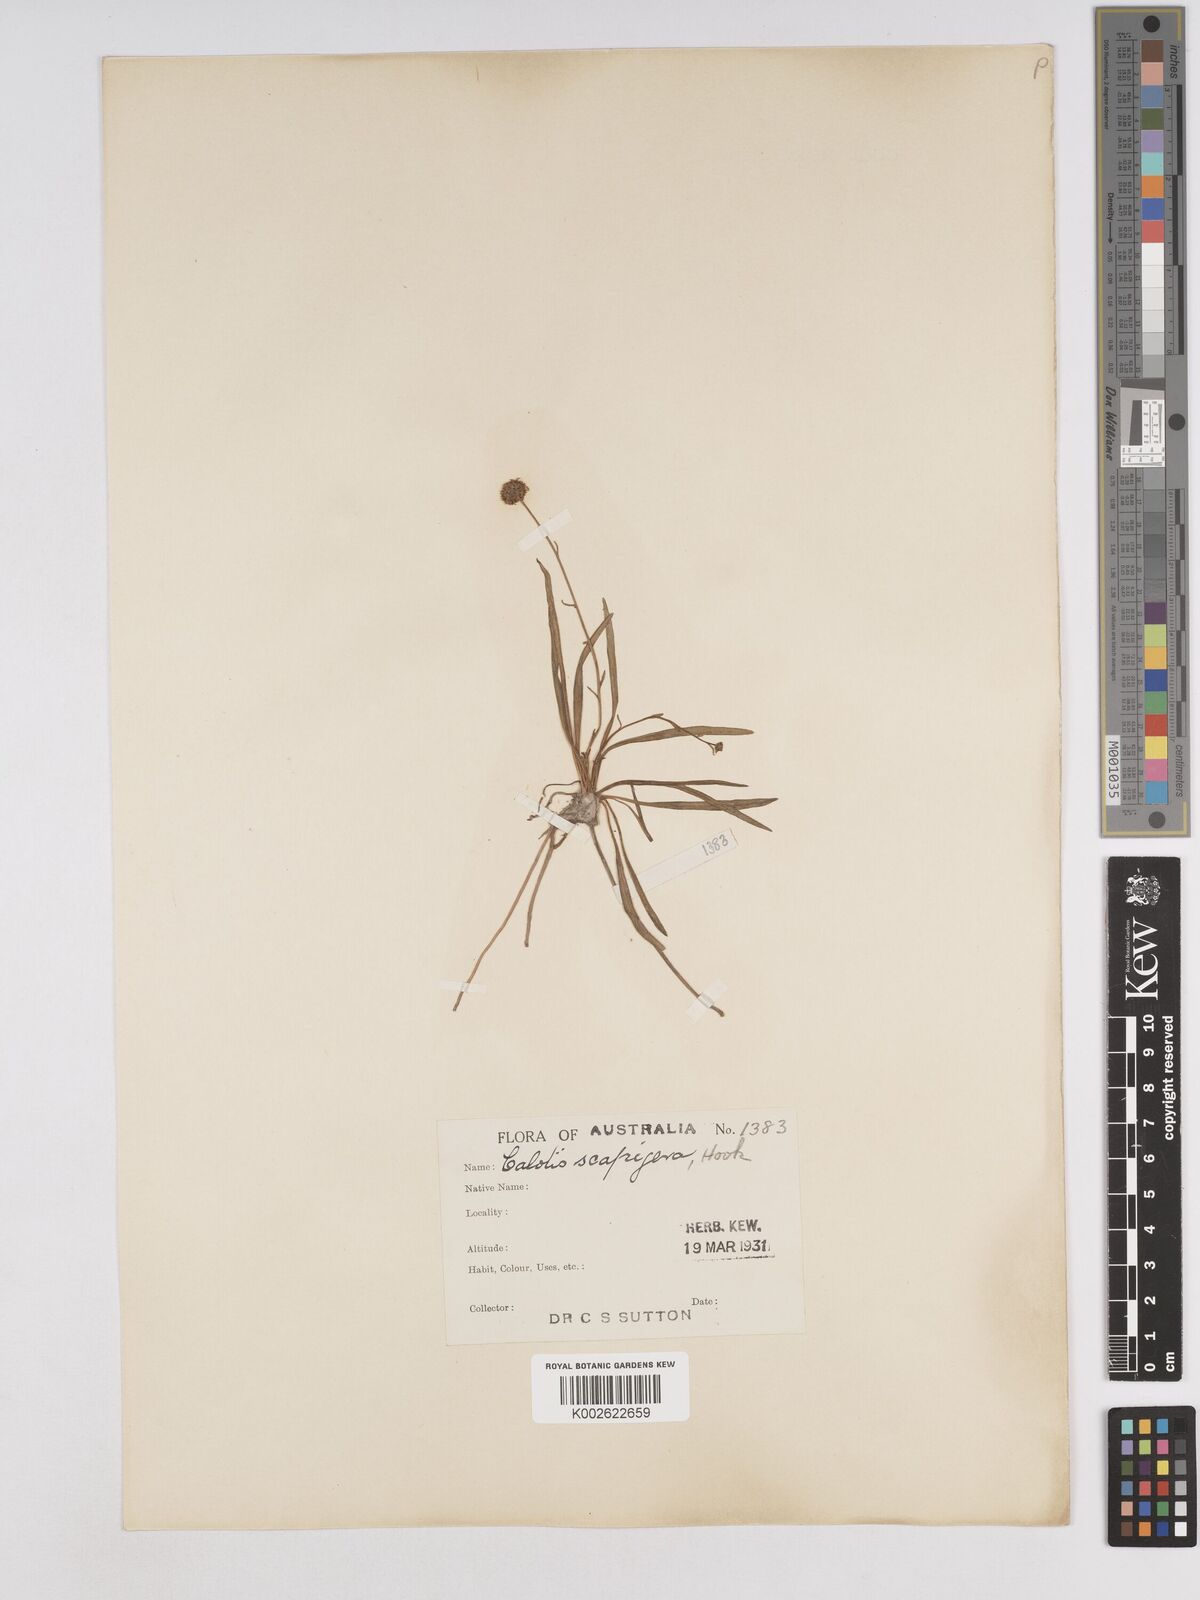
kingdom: Plantae
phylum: Tracheophyta
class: Magnoliopsida
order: Asterales
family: Asteraceae
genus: Calotis
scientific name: Calotis scapigera
